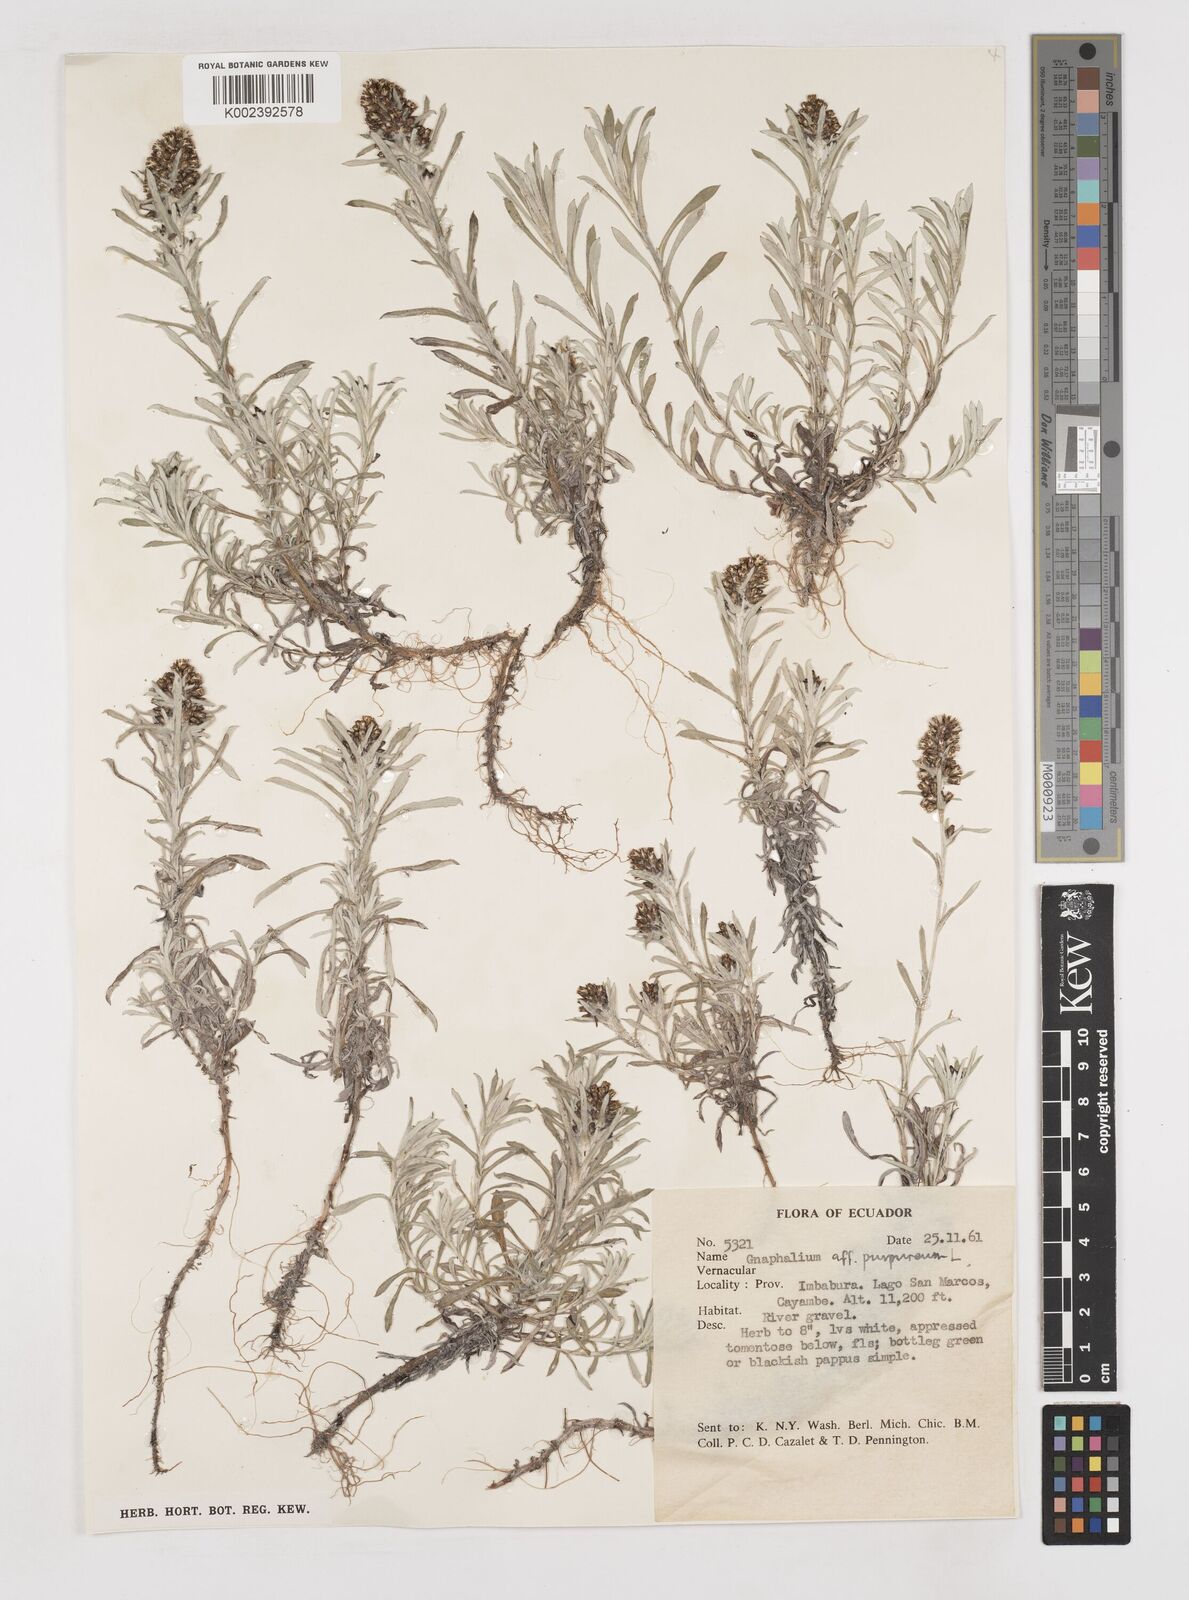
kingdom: Plantae
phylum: Tracheophyta
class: Magnoliopsida
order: Asterales
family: Asteraceae
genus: Pseudognaphalium
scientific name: Pseudognaphalium purpurascens
